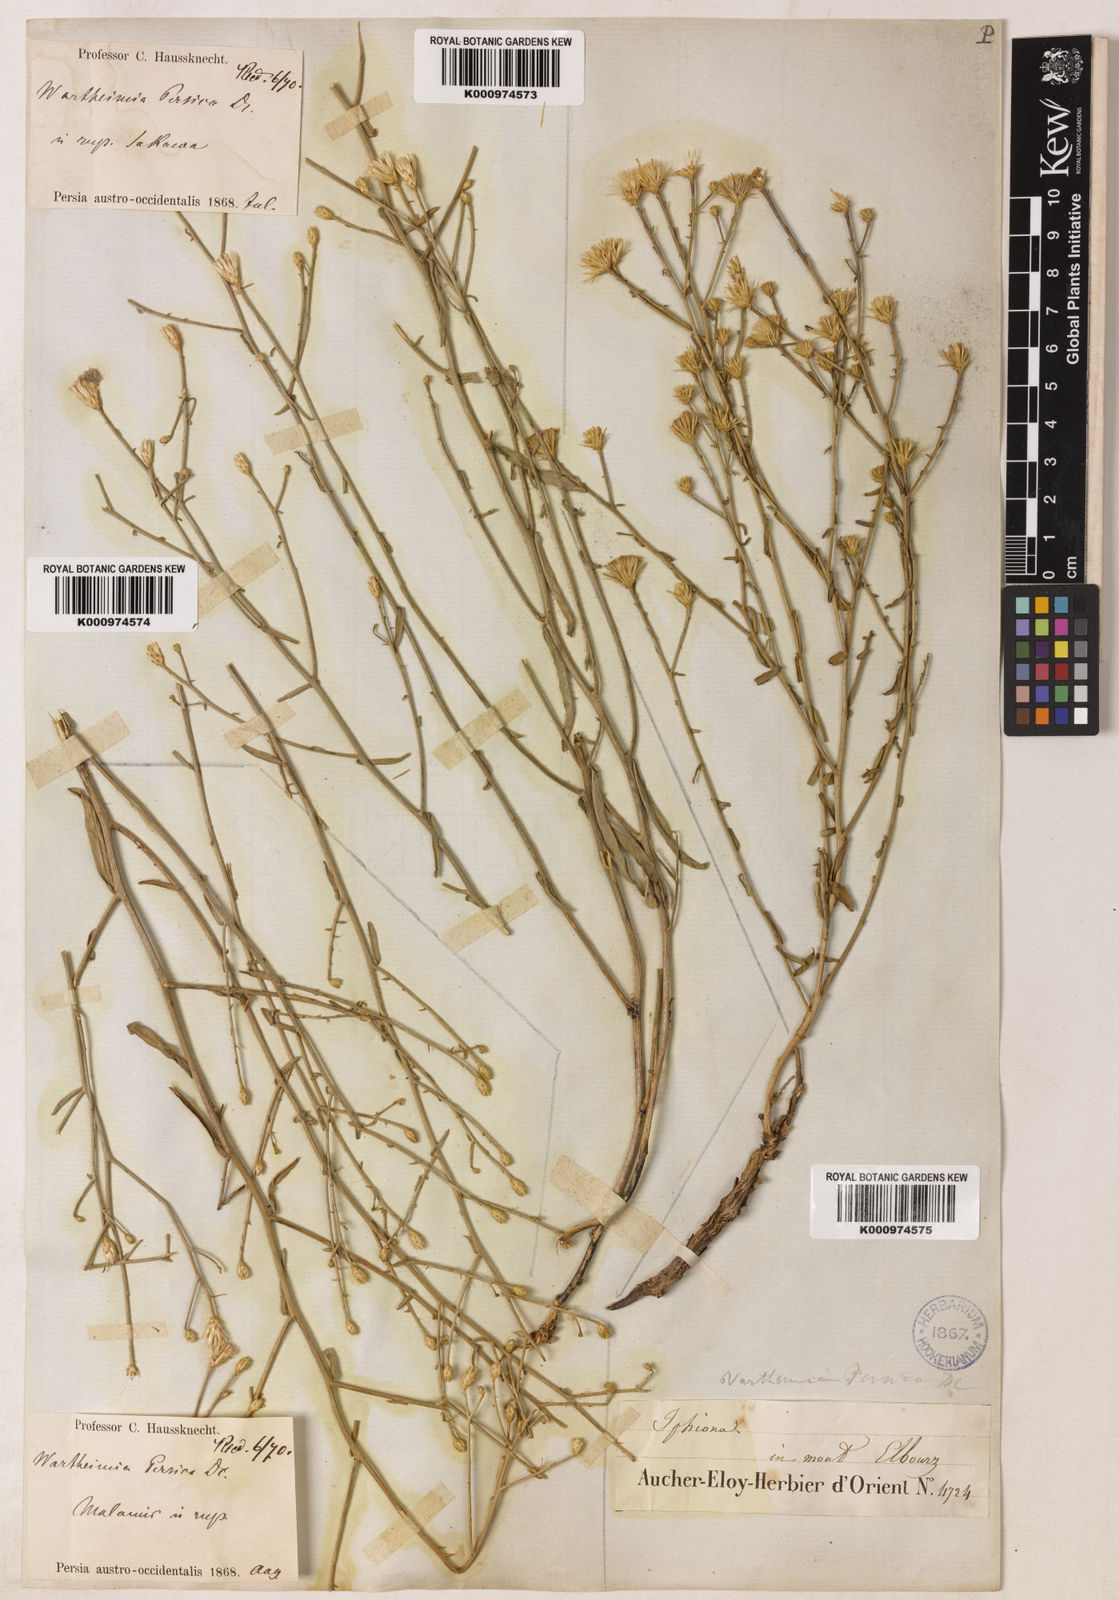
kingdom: Plantae
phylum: Tracheophyta
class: Magnoliopsida
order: Asterales
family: Asteraceae
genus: Pentanema
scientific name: Pentanema persicum
